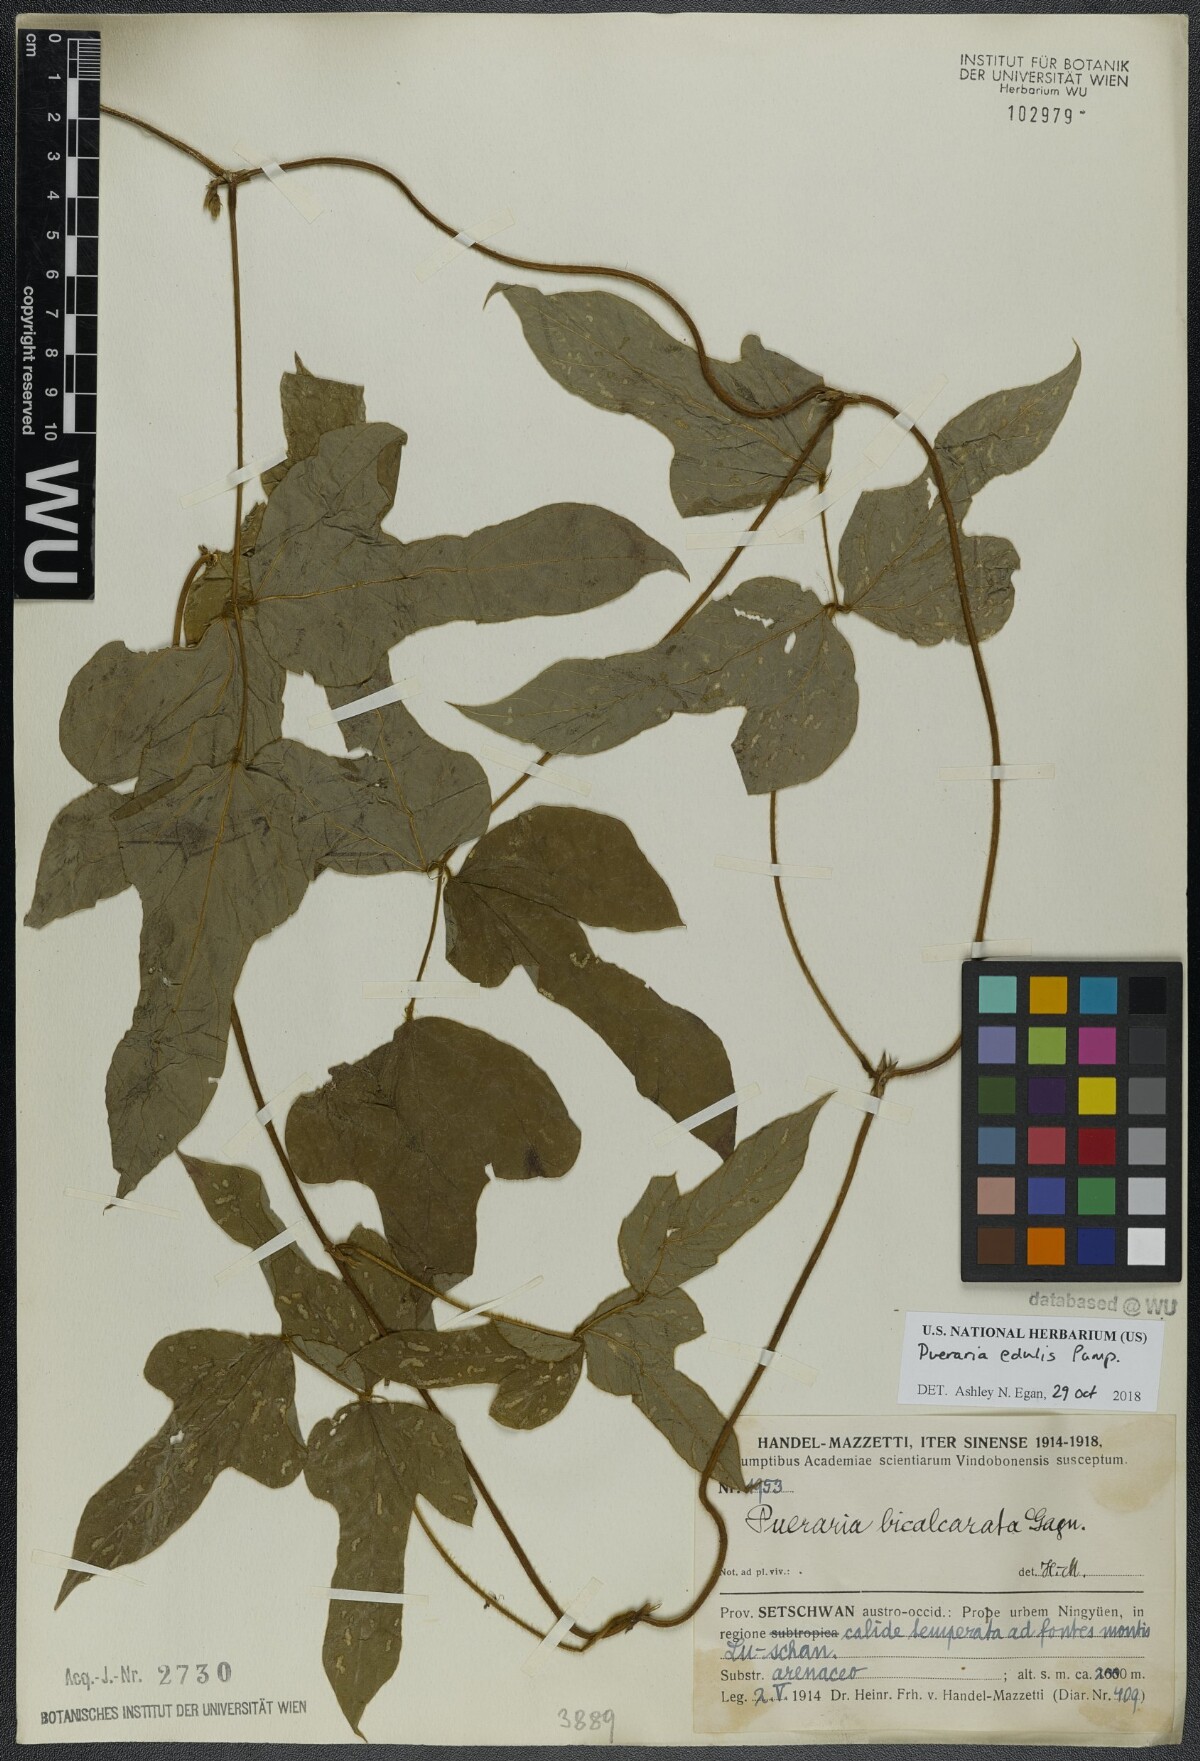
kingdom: Plantae
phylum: Tracheophyta
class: Magnoliopsida
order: Fabales
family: Fabaceae
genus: Pueraria
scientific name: Pueraria edulis
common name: Edible kudzu
